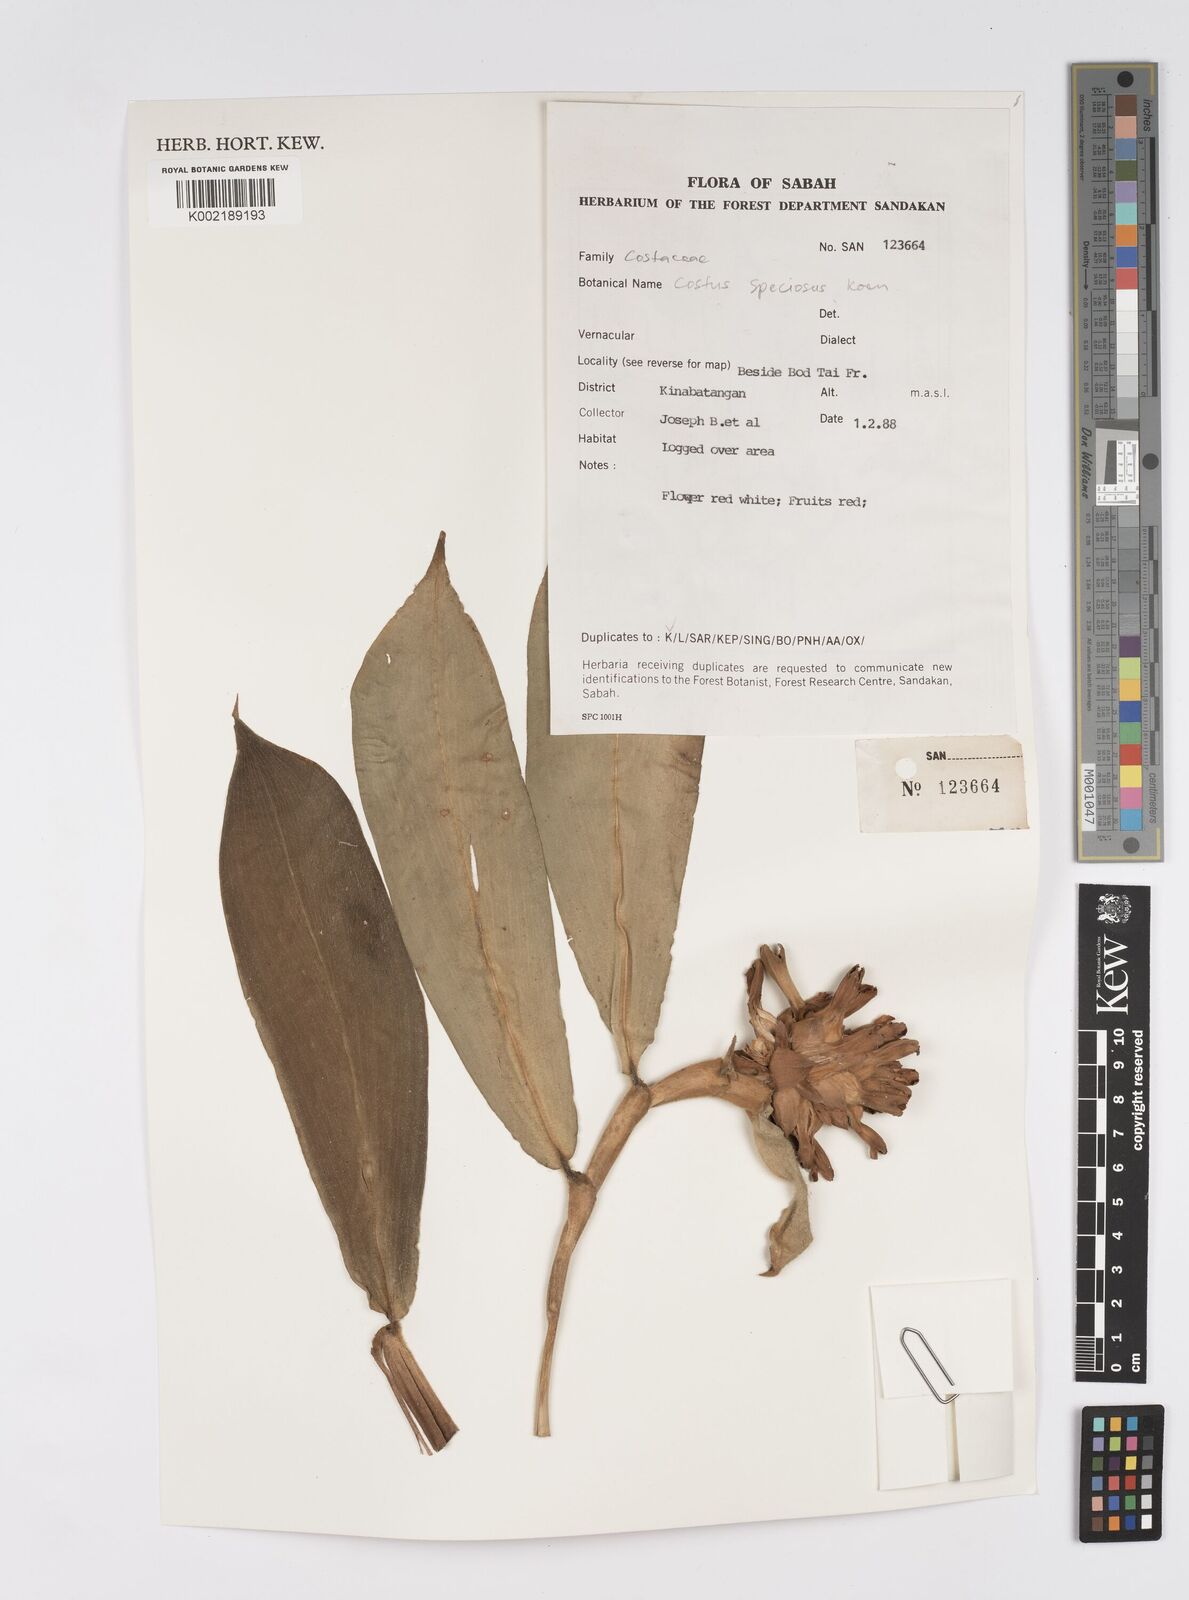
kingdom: Plantae
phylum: Tracheophyta
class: Liliopsida
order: Zingiberales
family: Costaceae
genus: Hellenia
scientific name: Hellenia speciosa
